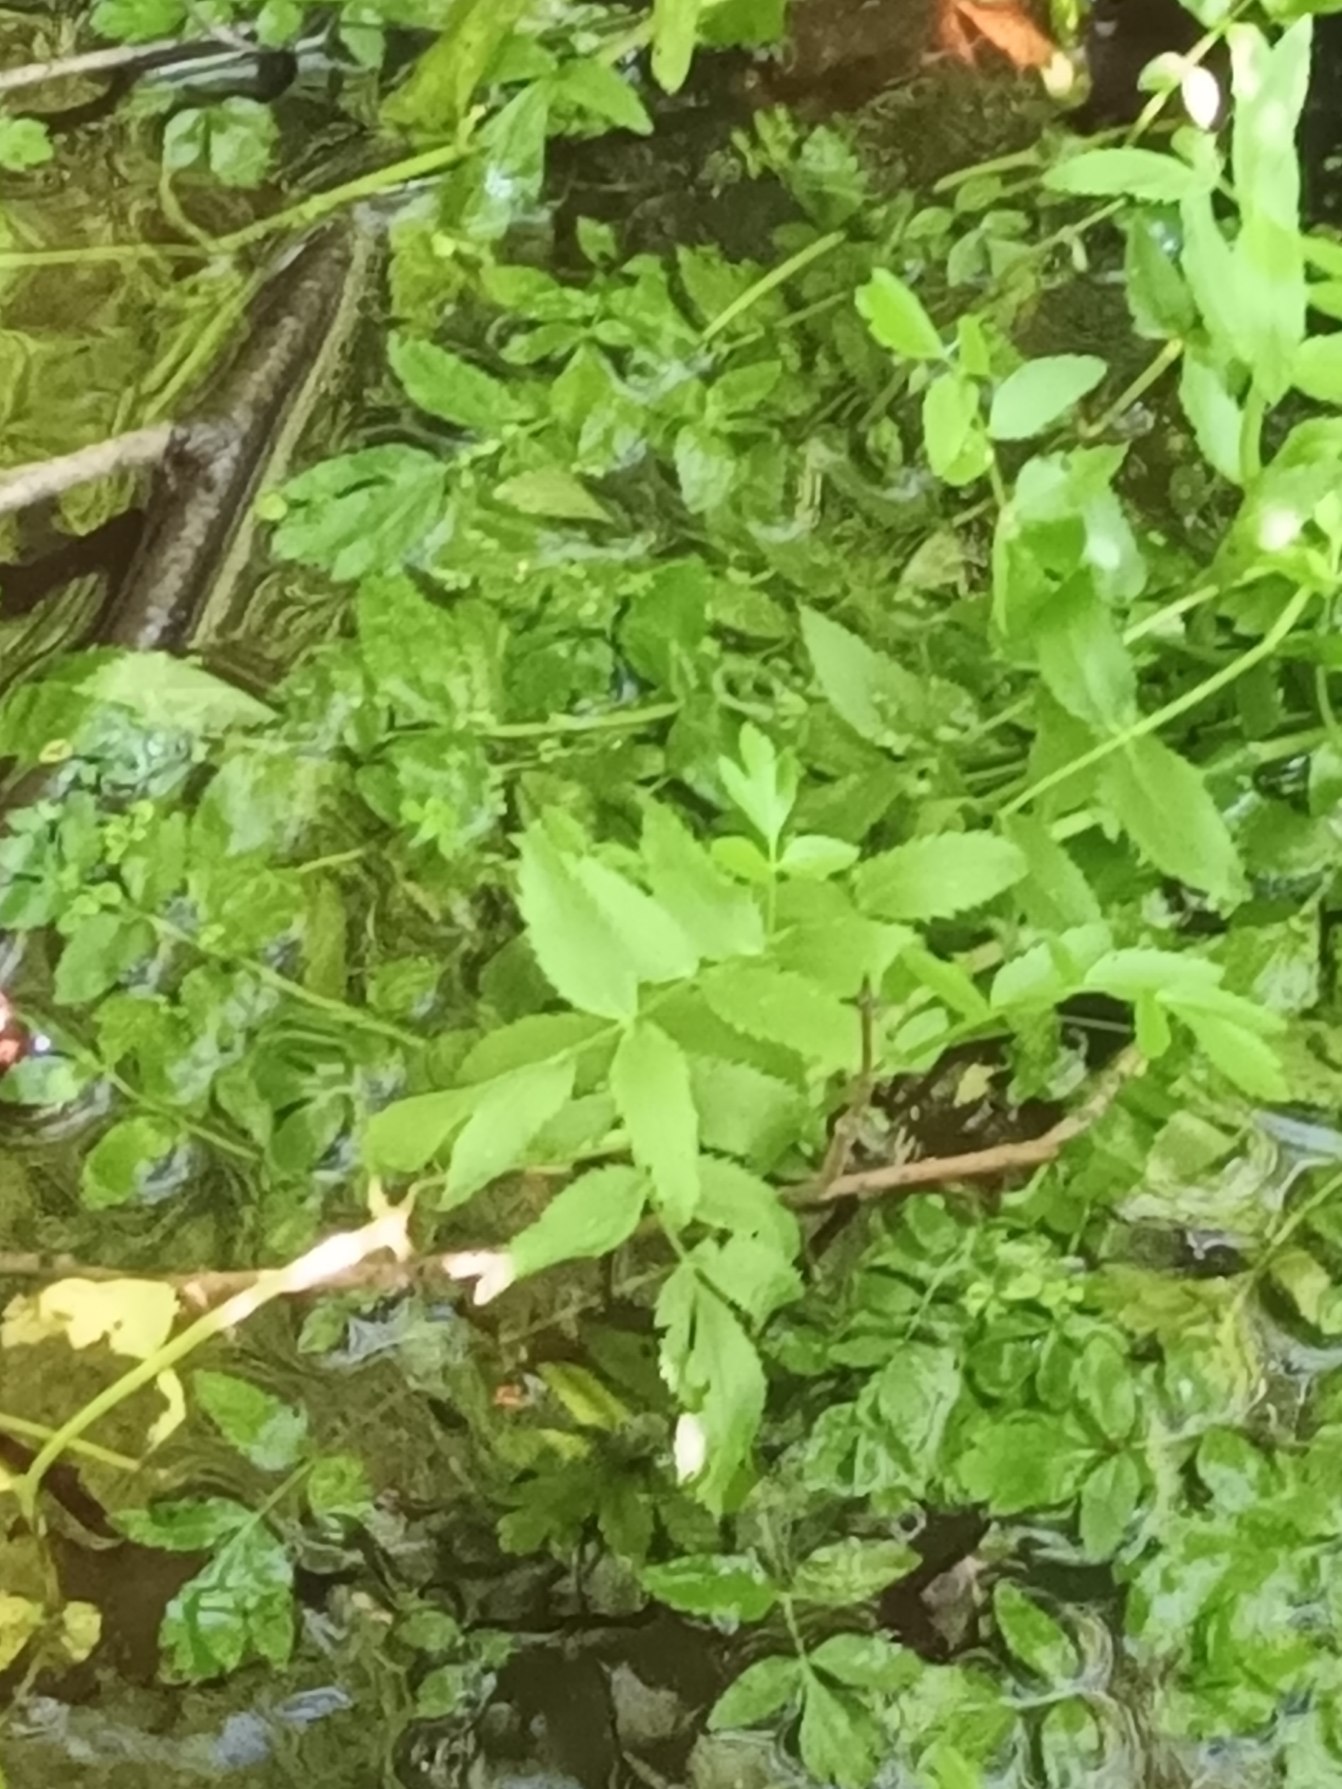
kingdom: Plantae
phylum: Tracheophyta
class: Magnoliopsida
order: Apiales
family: Apiaceae
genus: Berula
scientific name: Berula erecta
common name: Sideskærm
